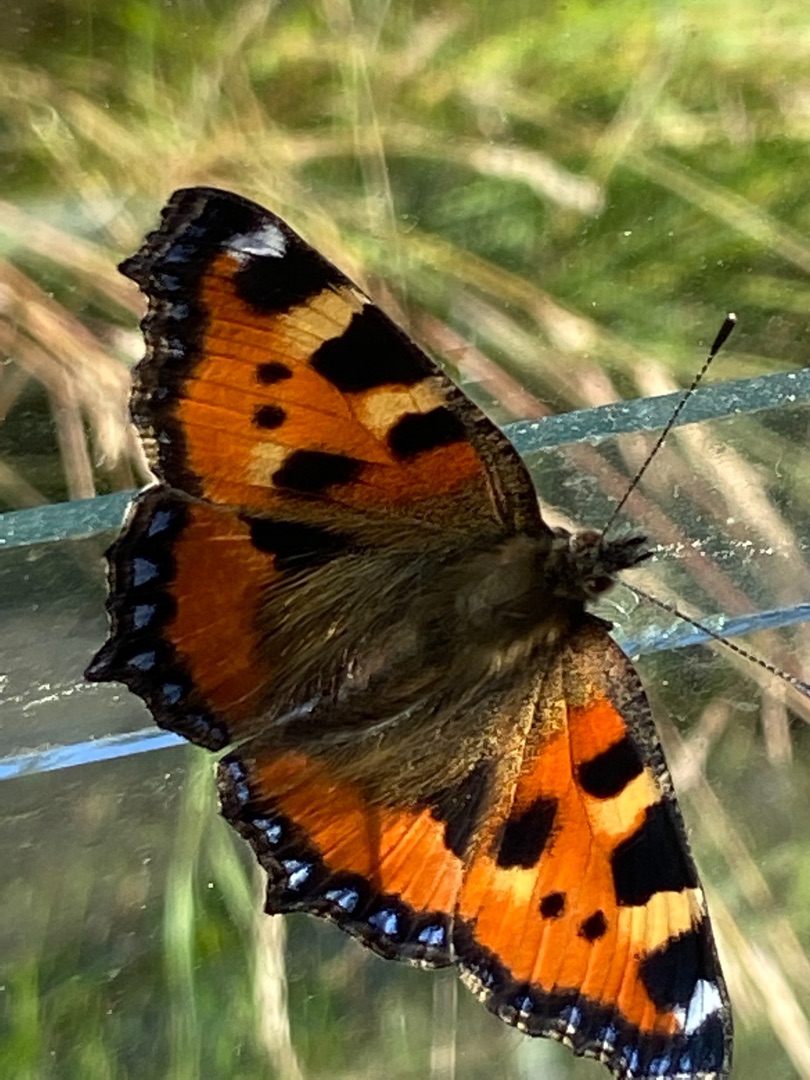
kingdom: Animalia
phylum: Arthropoda
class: Insecta
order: Lepidoptera
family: Nymphalidae
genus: Aglais
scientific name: Aglais urticae
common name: Nældens takvinge
